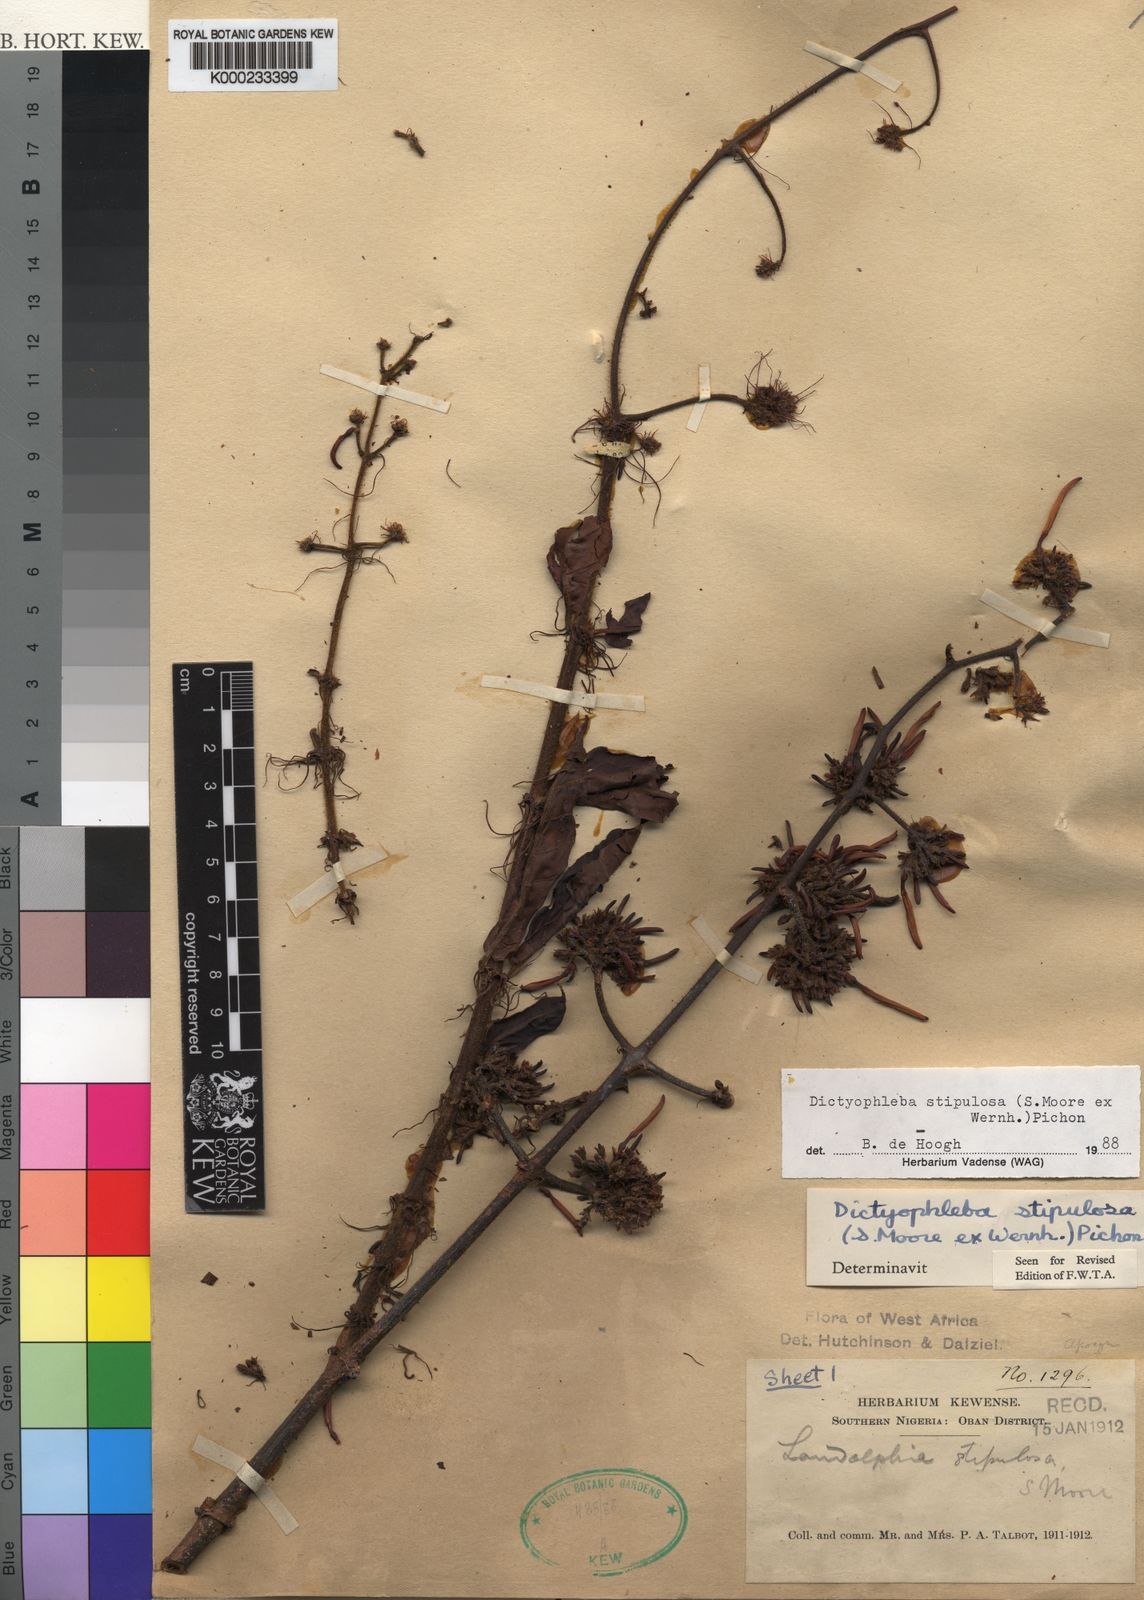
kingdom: Plantae
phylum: Tracheophyta
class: Magnoliopsida
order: Gentianales
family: Apocynaceae
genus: Dictyophleba
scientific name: Dictyophleba stipulosa
